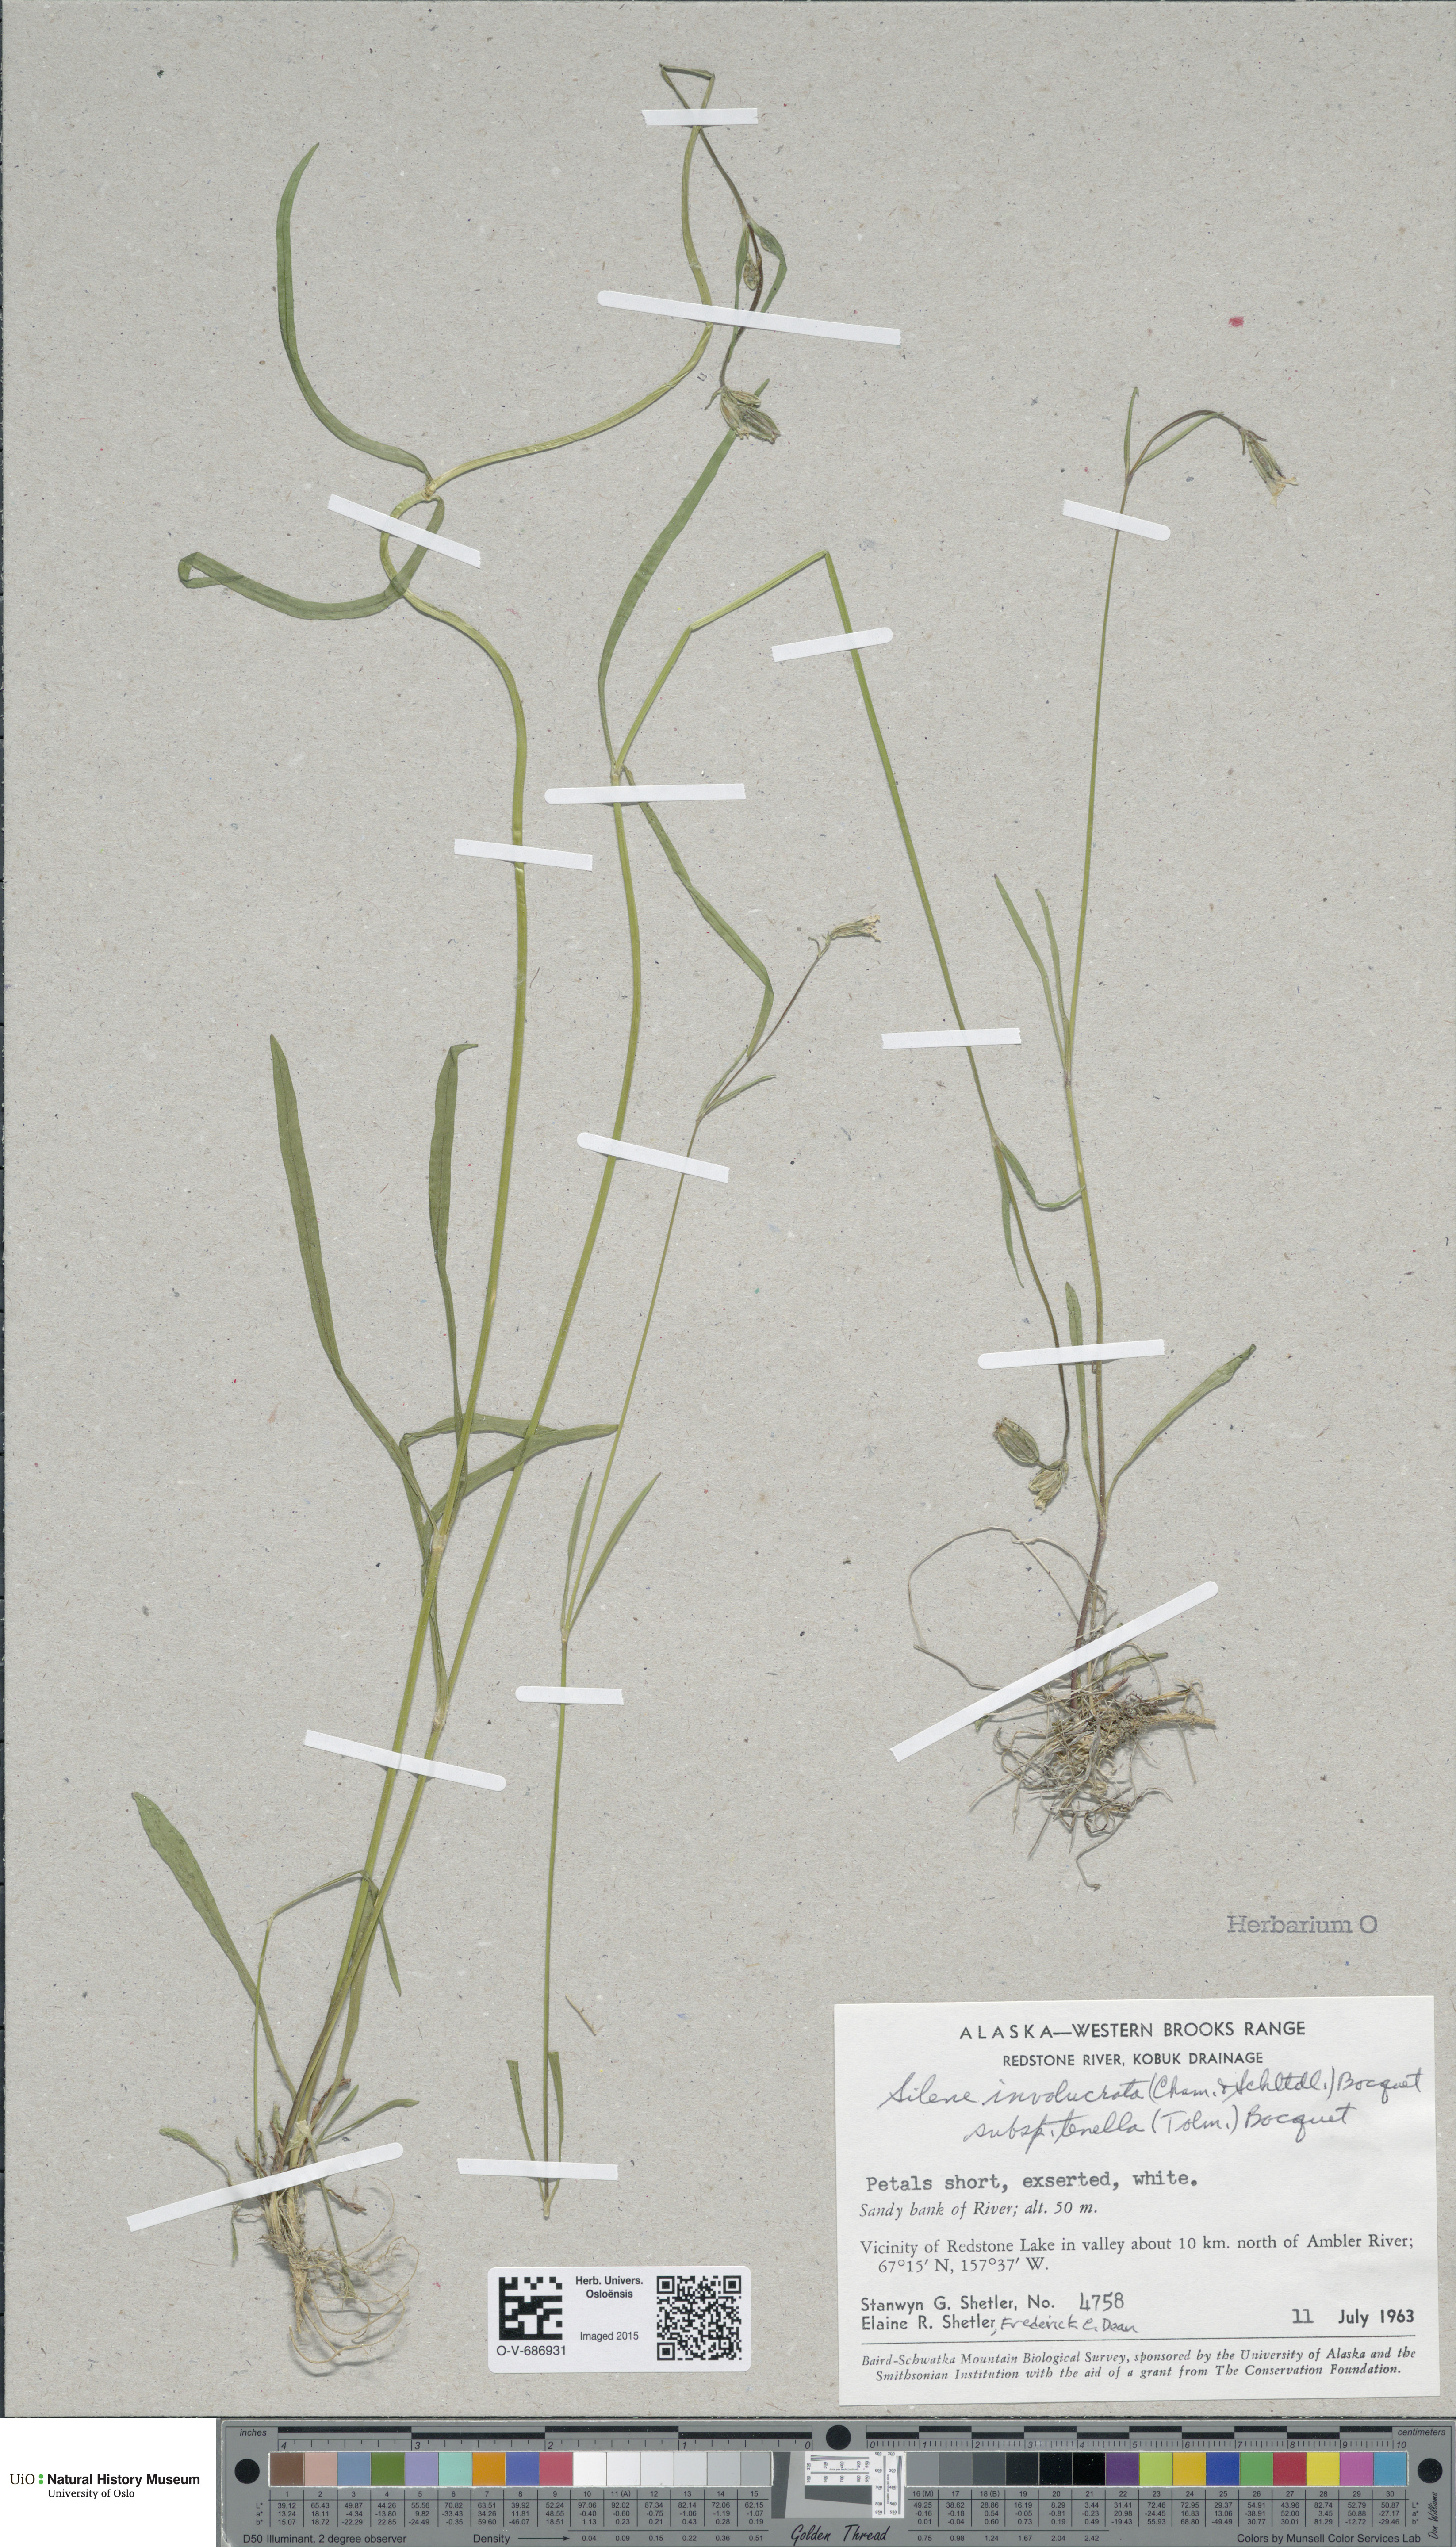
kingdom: Plantae
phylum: Tracheophyta
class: Magnoliopsida
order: Caryophyllales
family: Caryophyllaceae
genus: Silene
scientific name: Silene involucrata
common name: Greater arctic campion
